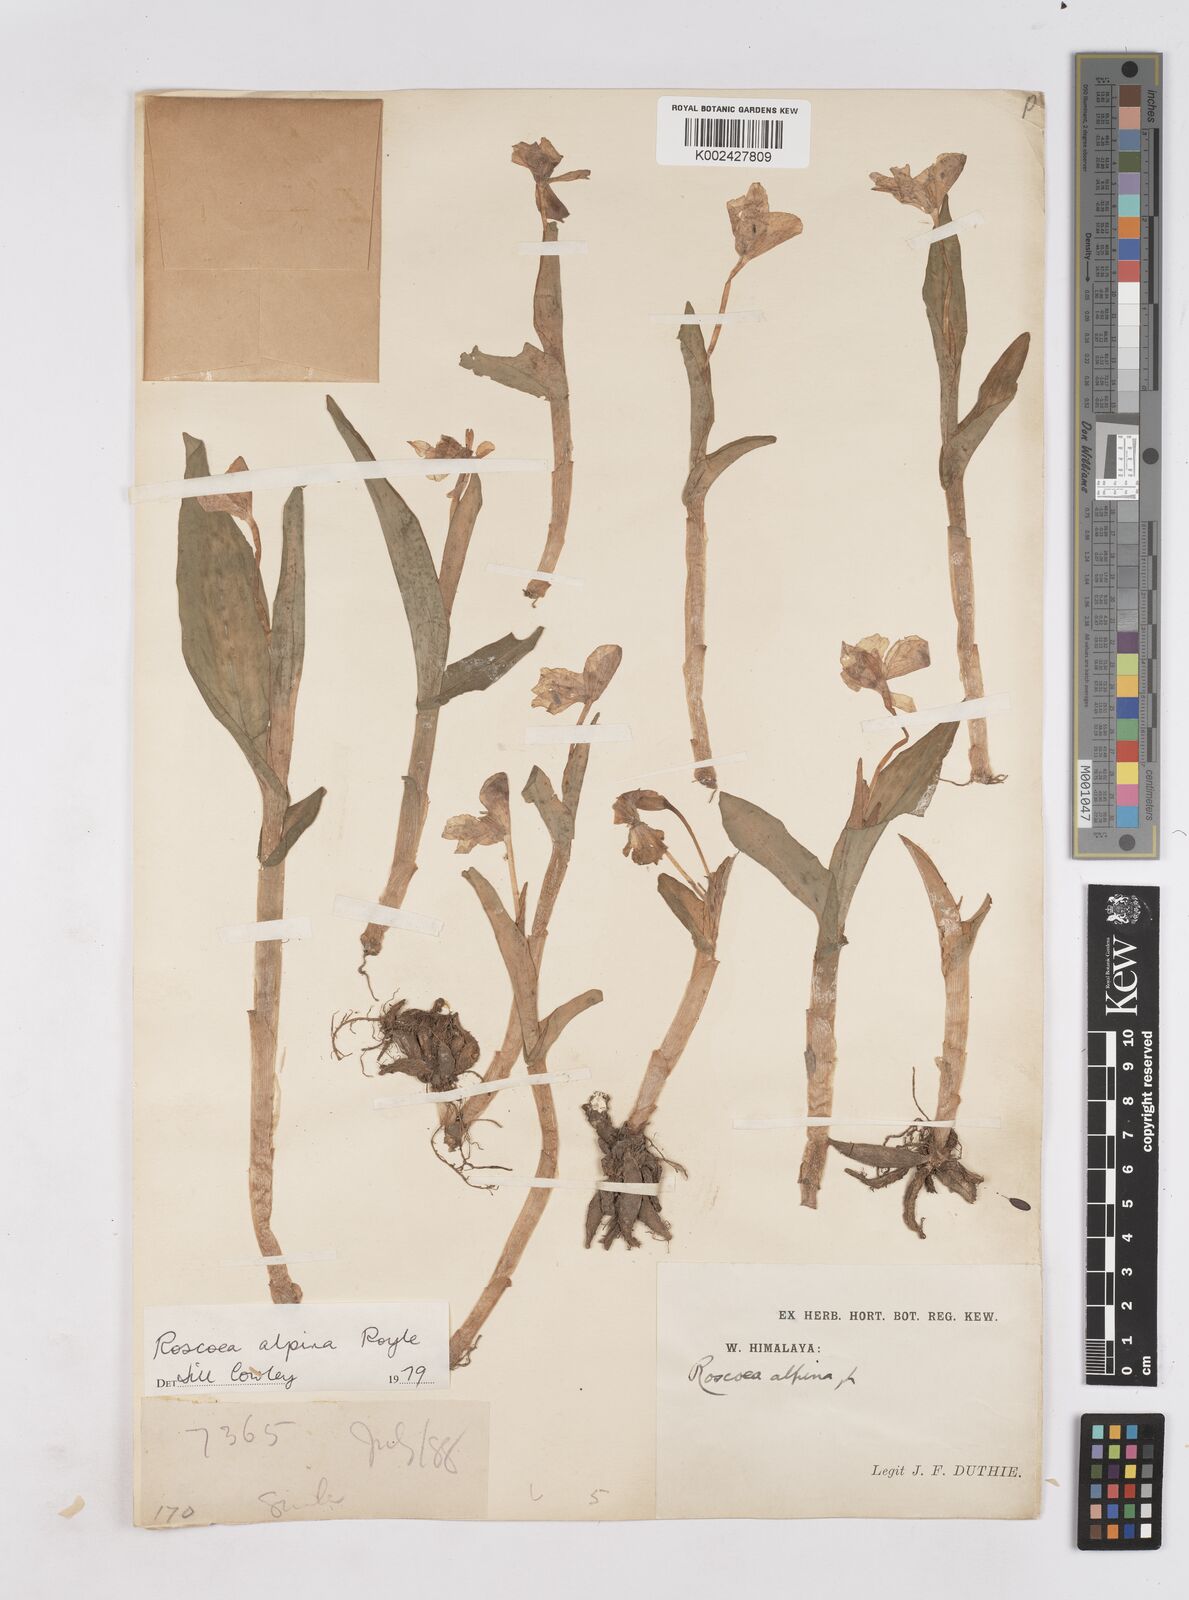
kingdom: Plantae
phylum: Tracheophyta
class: Liliopsida
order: Zingiberales
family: Zingiberaceae
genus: Roscoea
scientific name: Roscoea alpina
